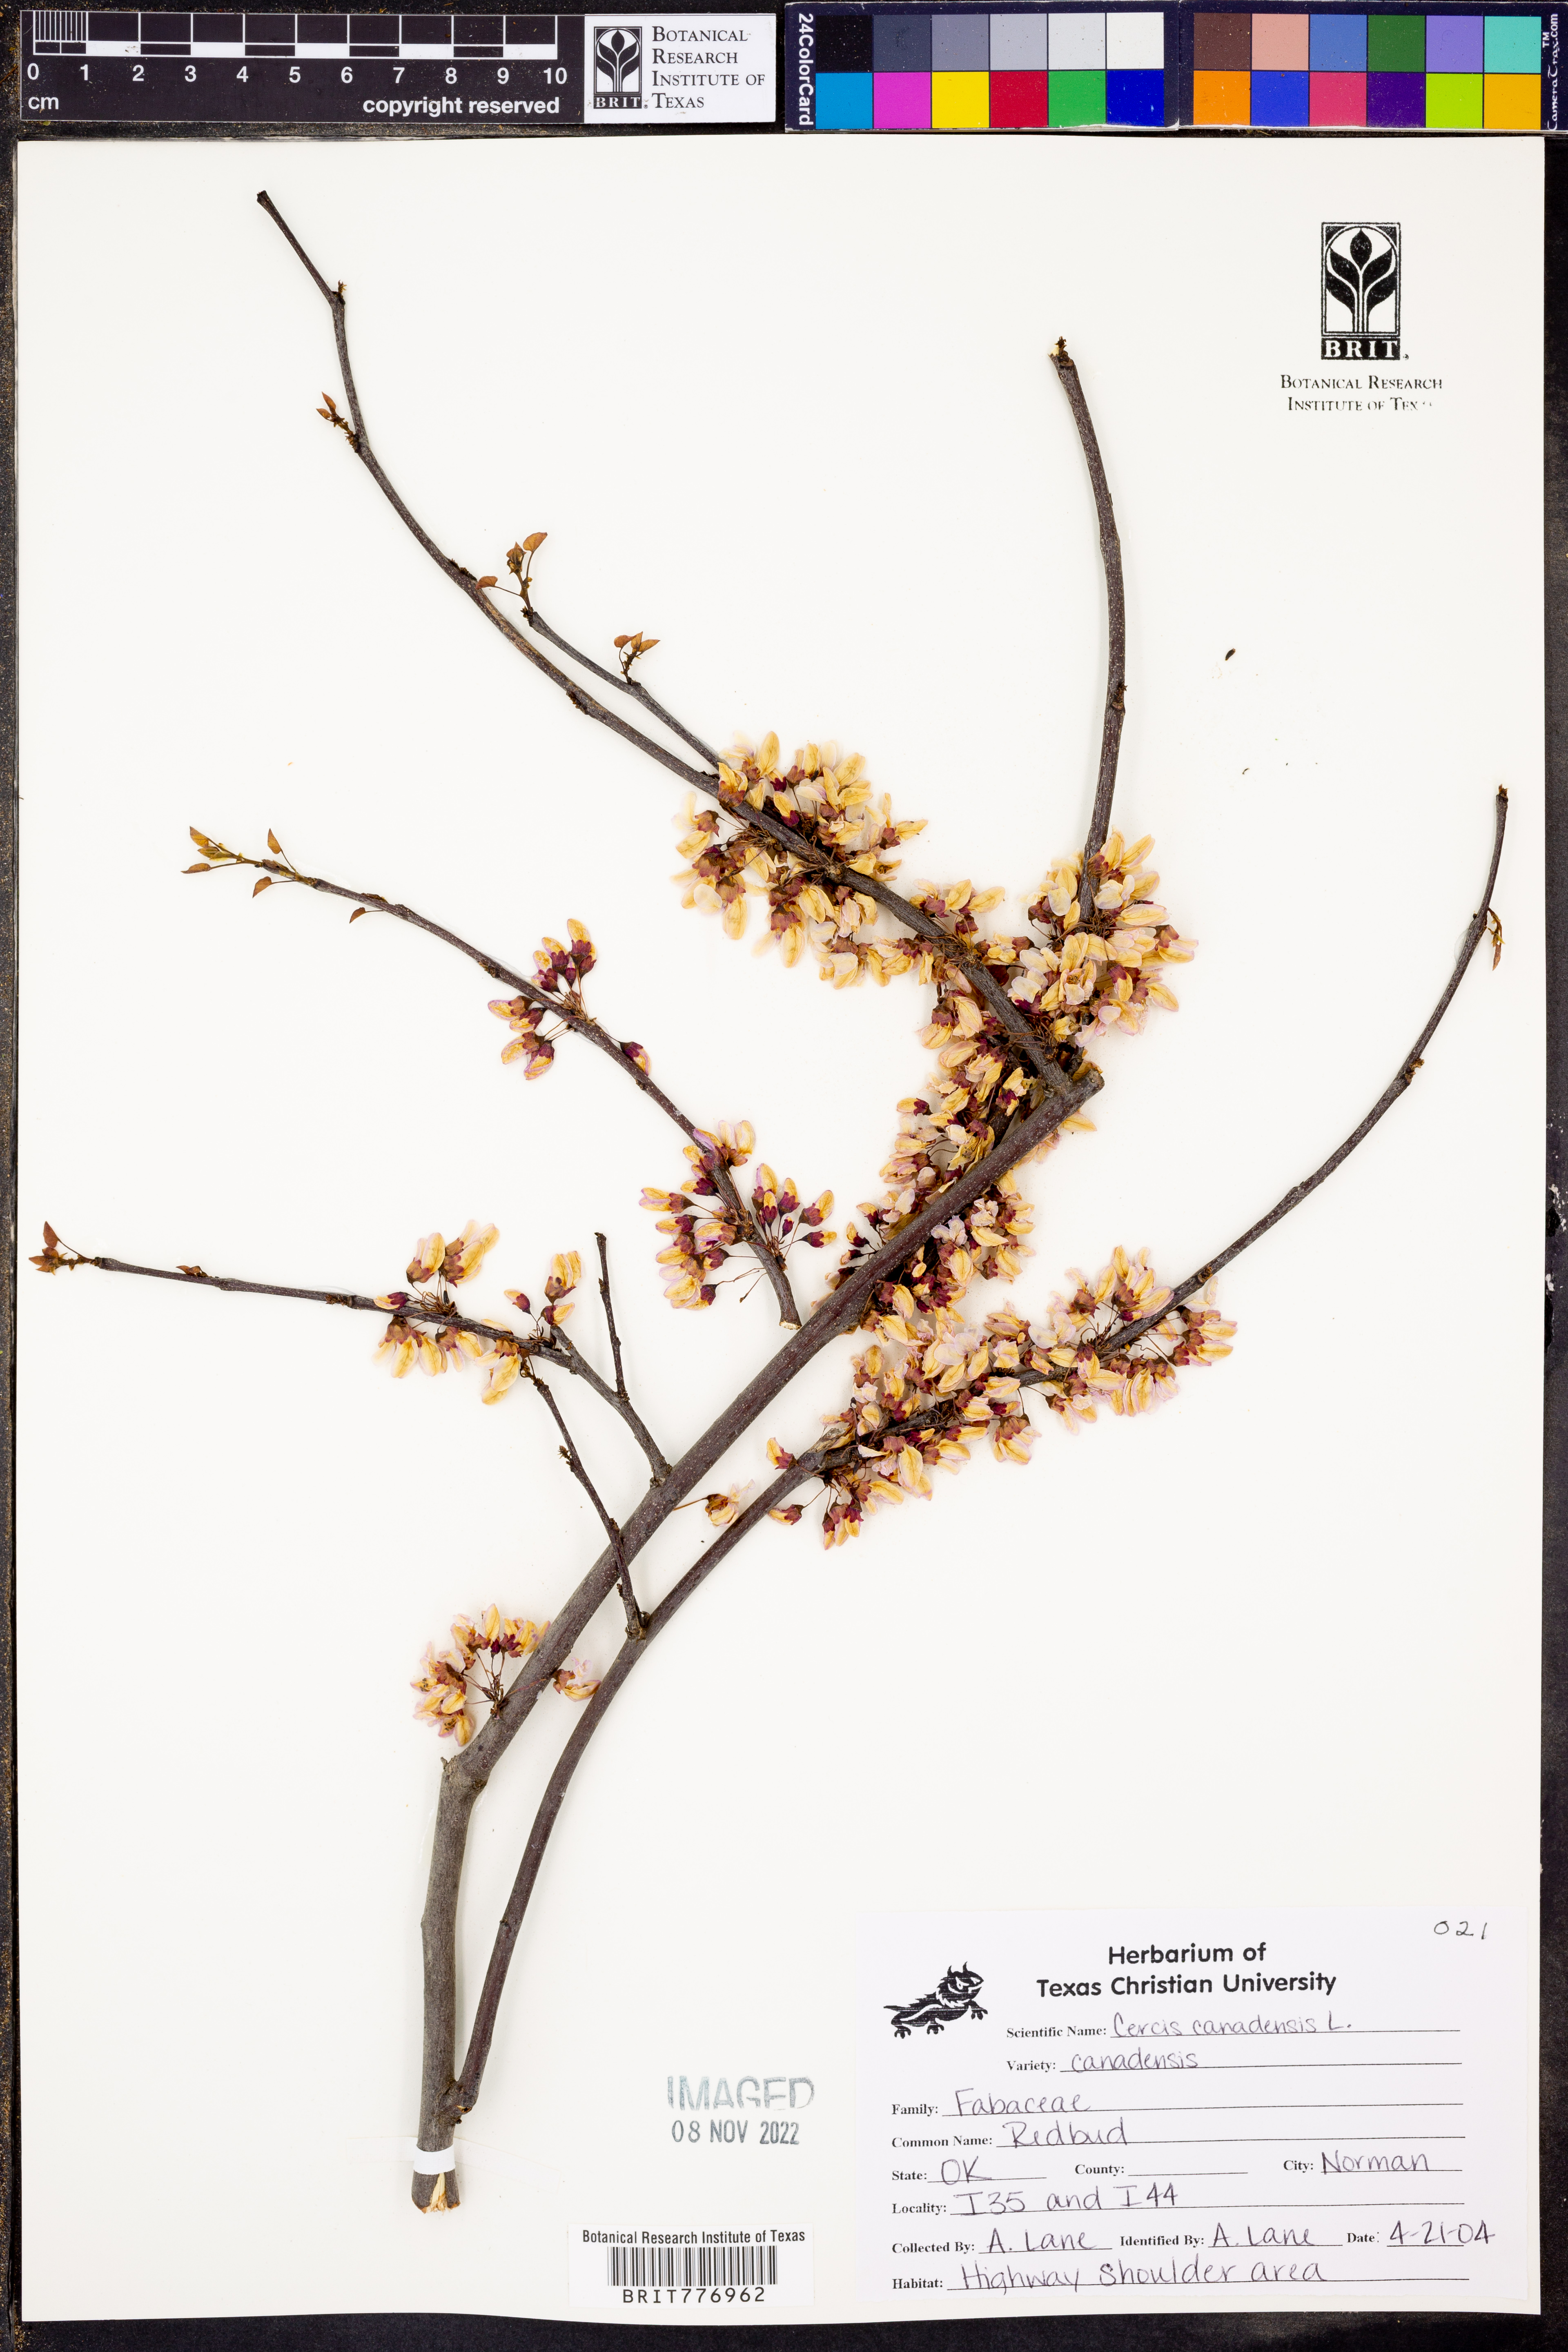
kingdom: Plantae
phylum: Tracheophyta
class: Magnoliopsida
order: Fabales
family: Fabaceae
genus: Cercis
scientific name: Cercis canadensis
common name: Eastern redbud
